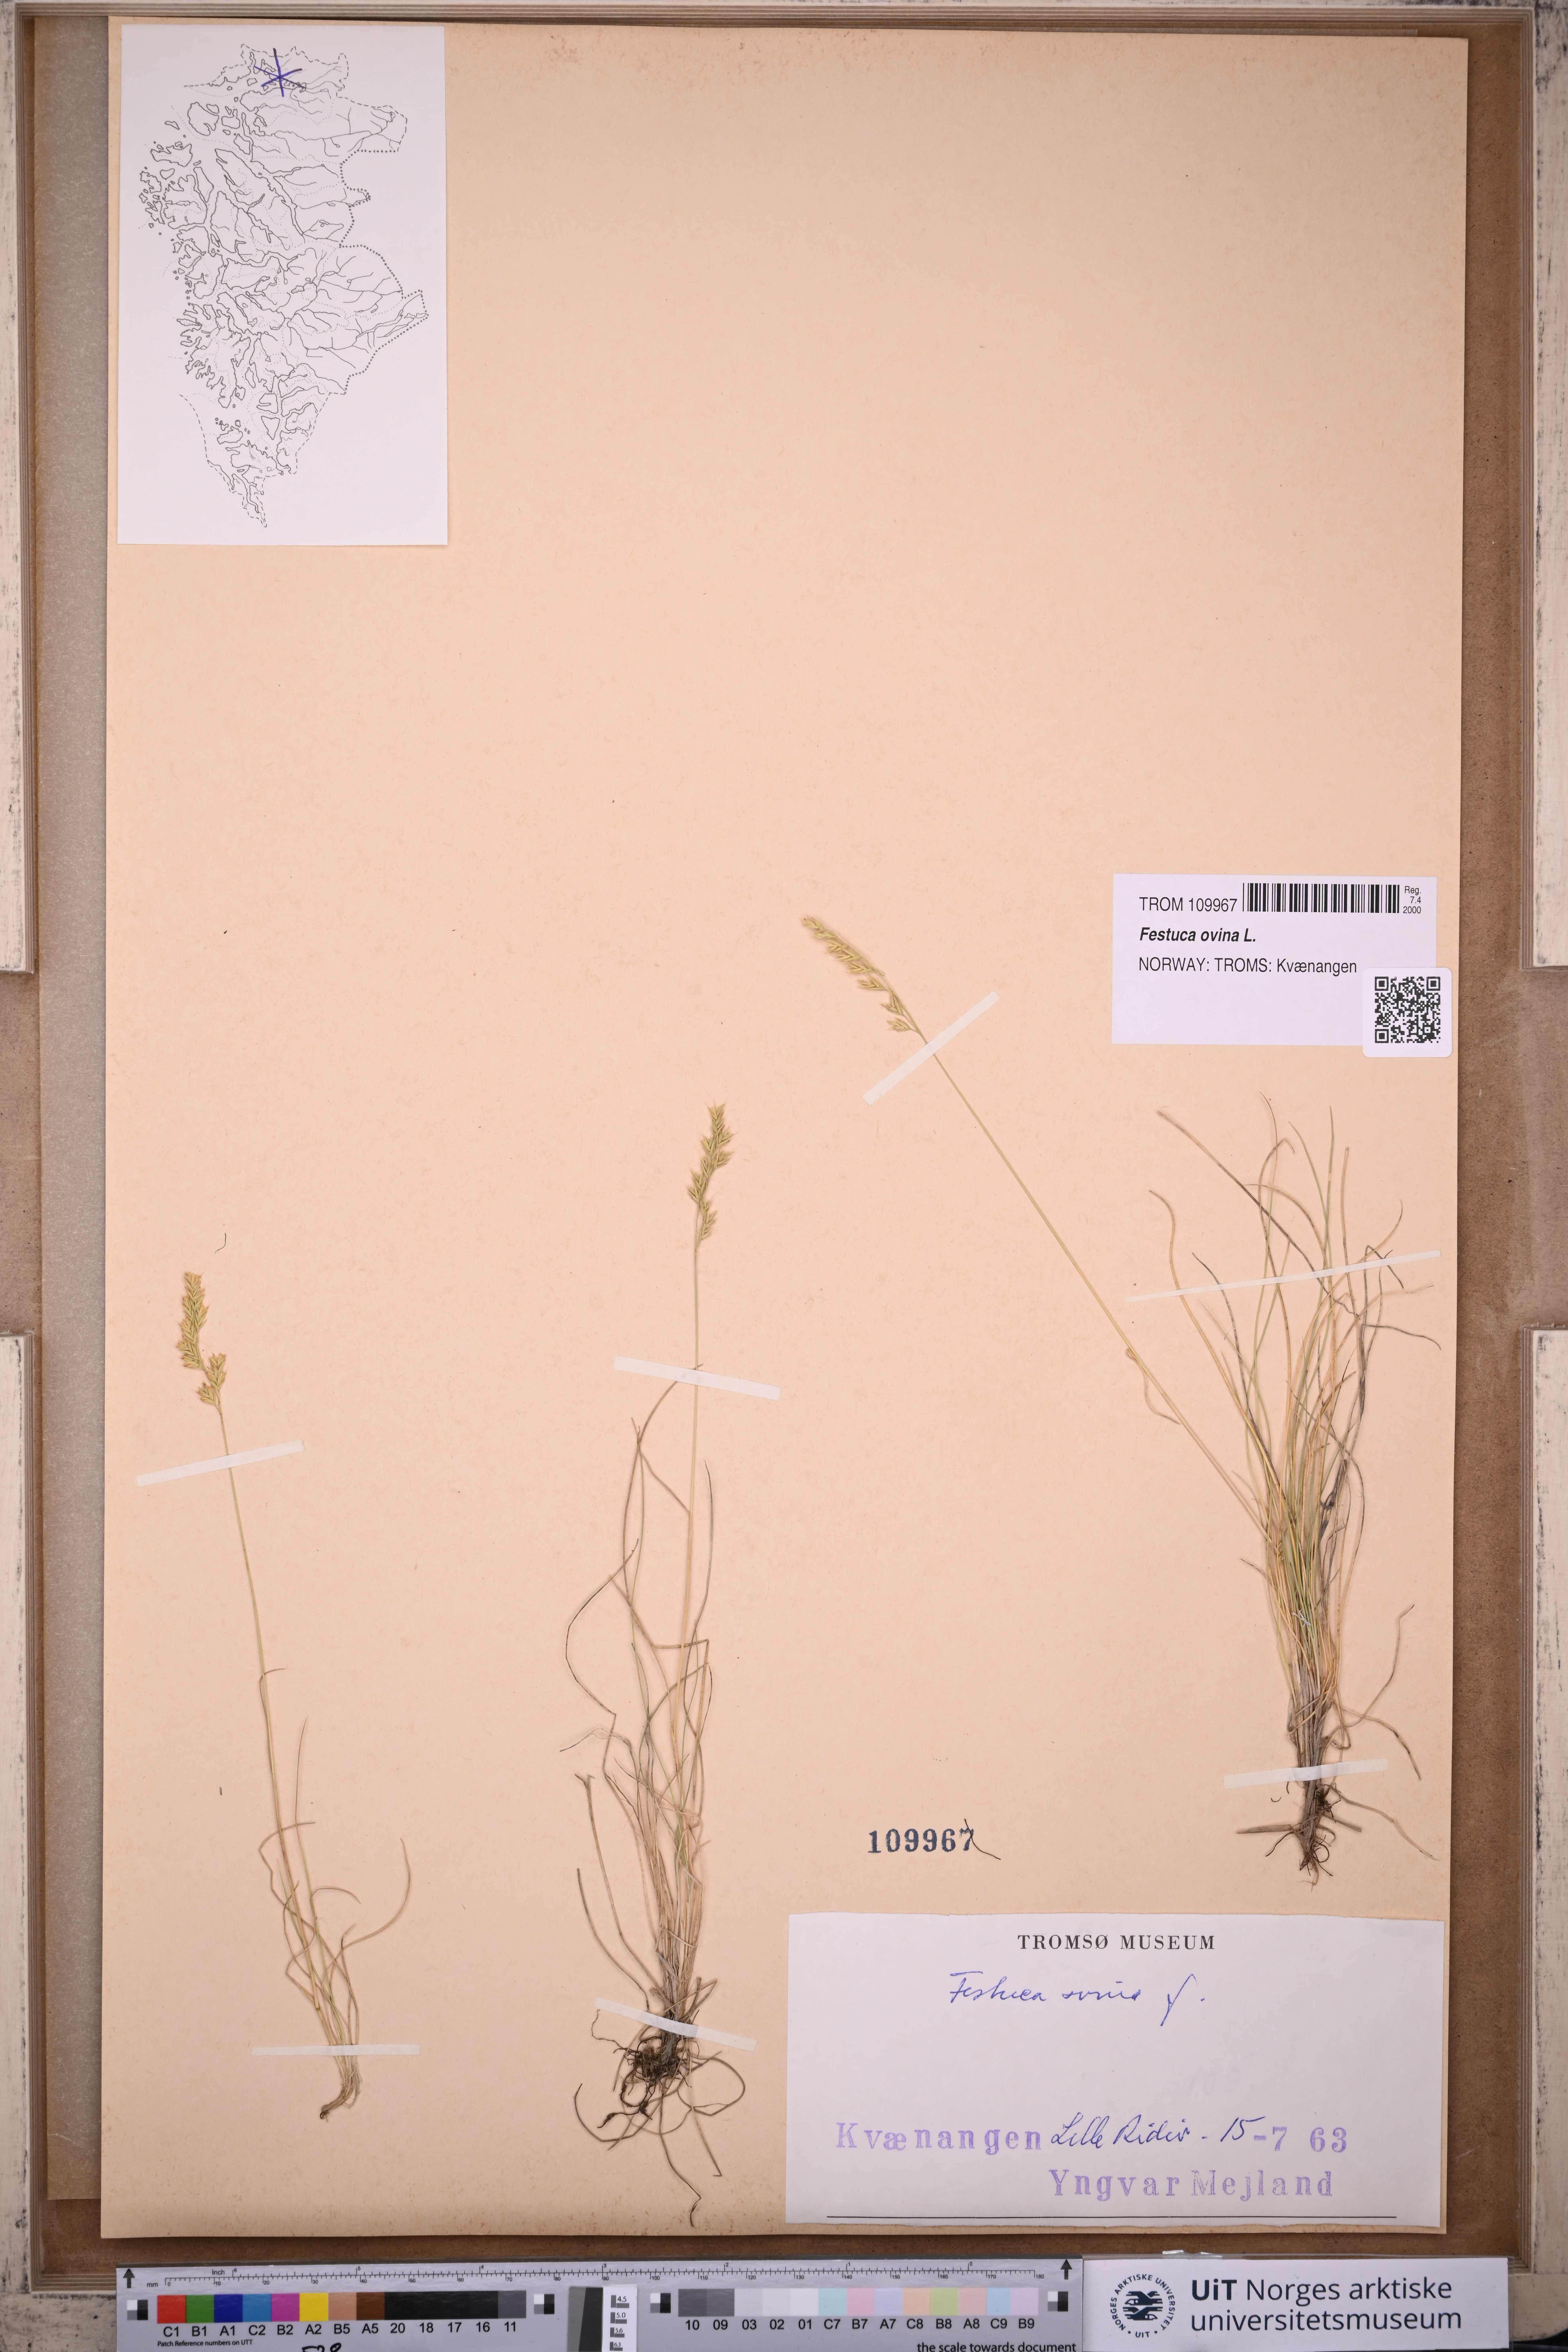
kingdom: Plantae
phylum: Tracheophyta
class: Liliopsida
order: Poales
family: Poaceae
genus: Festuca
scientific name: Festuca ovina
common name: Sheep fescue
